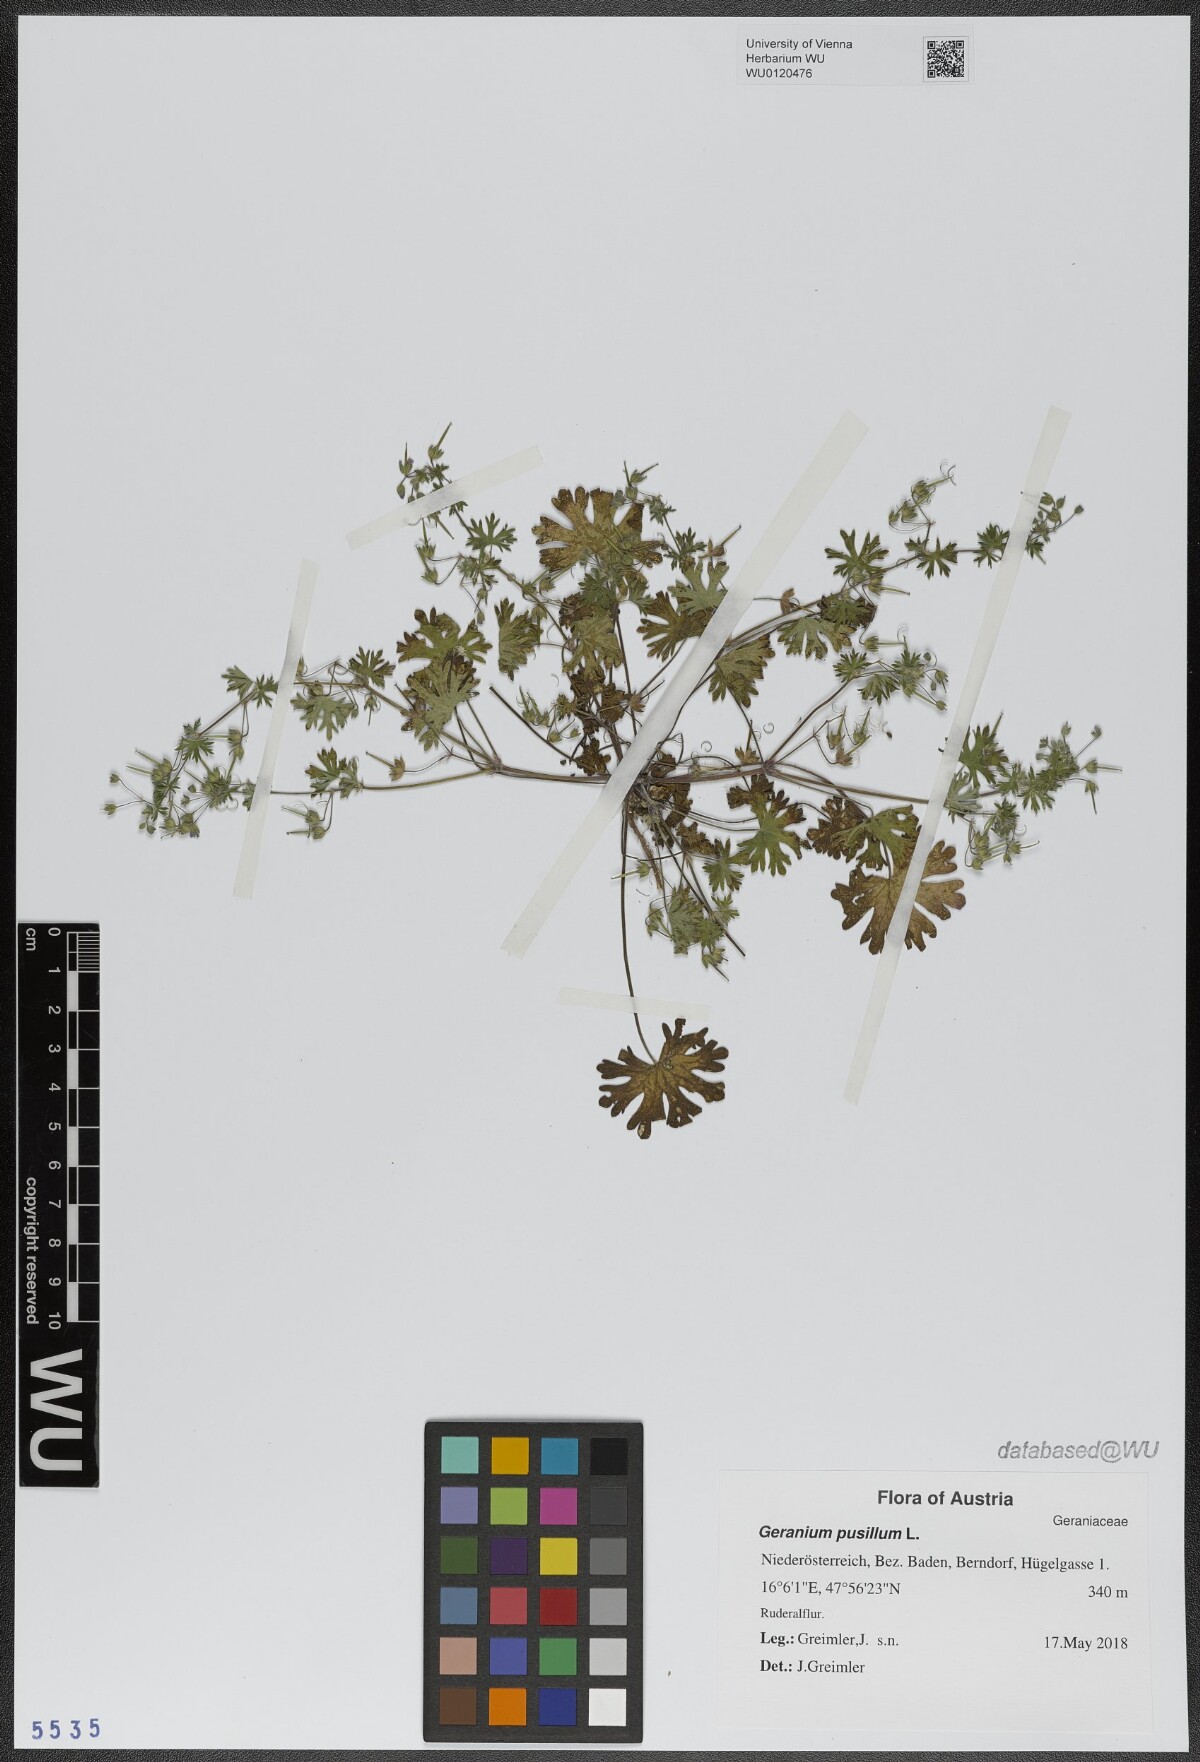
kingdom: Plantae
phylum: Tracheophyta
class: Magnoliopsida
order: Geraniales
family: Geraniaceae
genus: Geranium
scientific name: Geranium pusillum
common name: Small geranium
